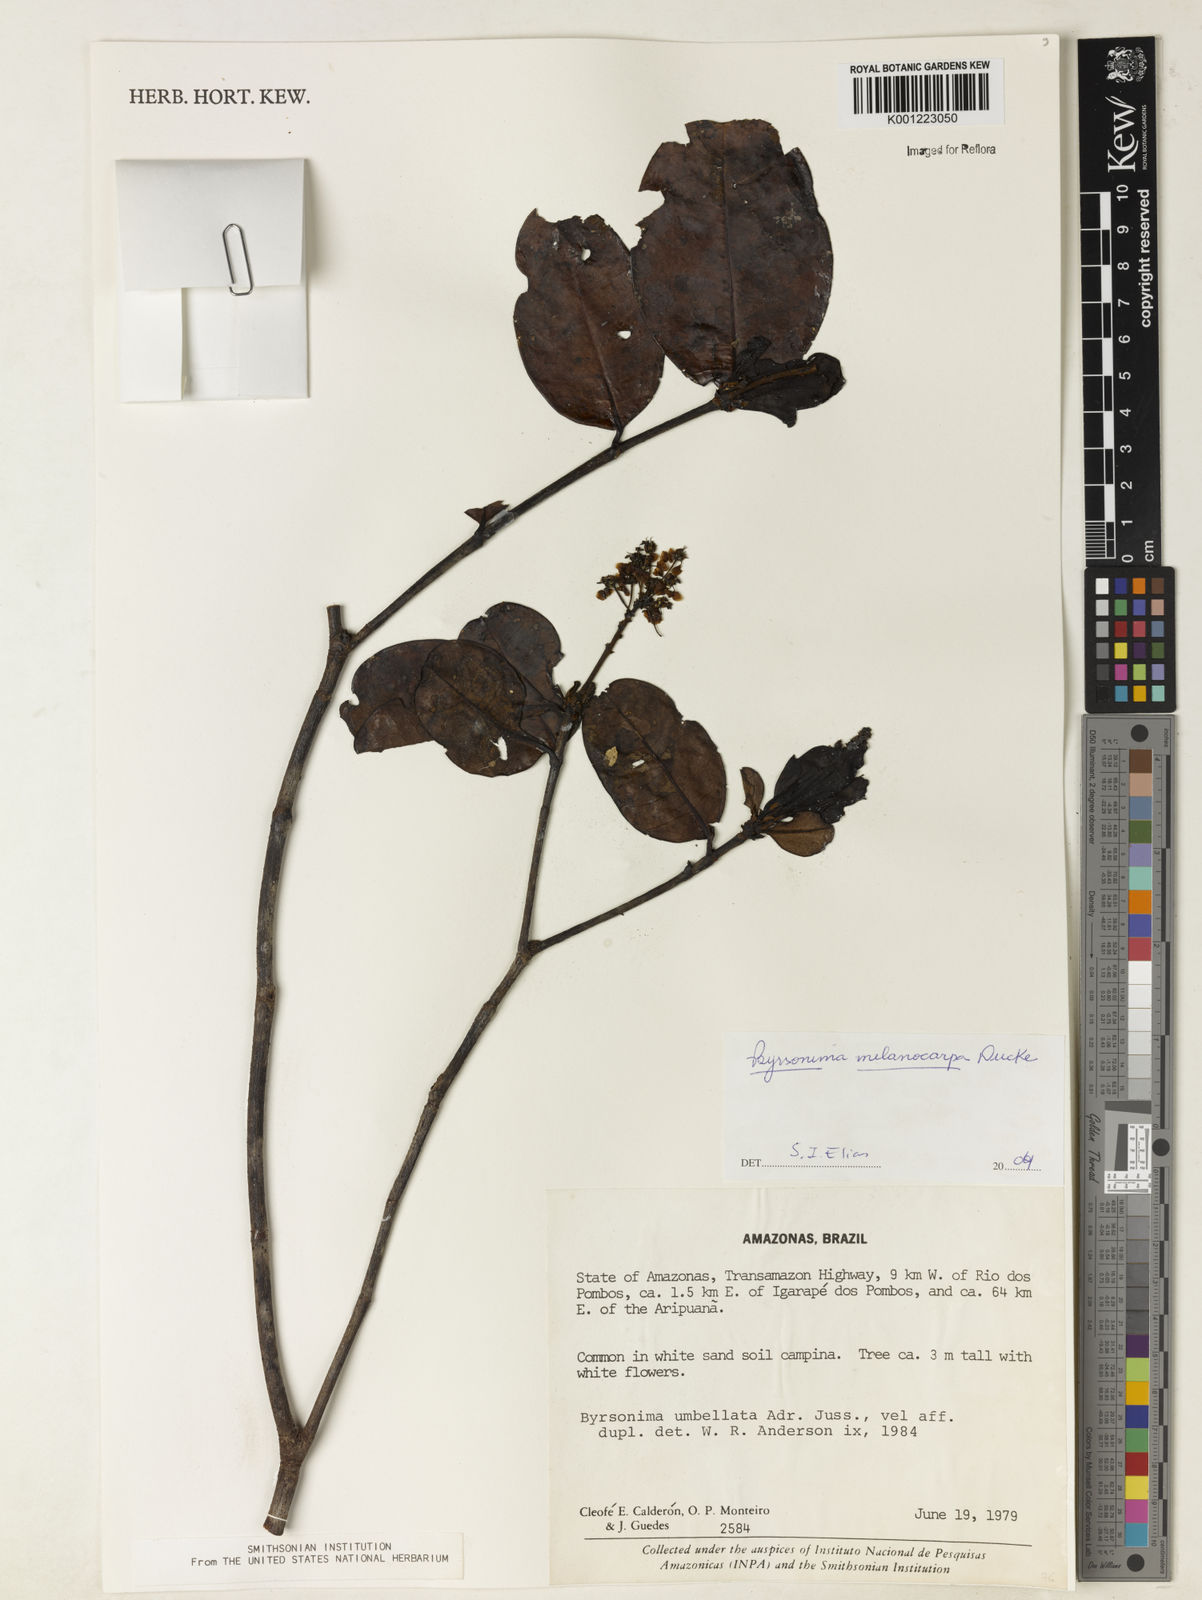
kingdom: Plantae
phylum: Tracheophyta
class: Magnoliopsida
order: Malpighiales
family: Malpighiaceae
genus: Byrsonima
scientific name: Byrsonima melanocarpa
